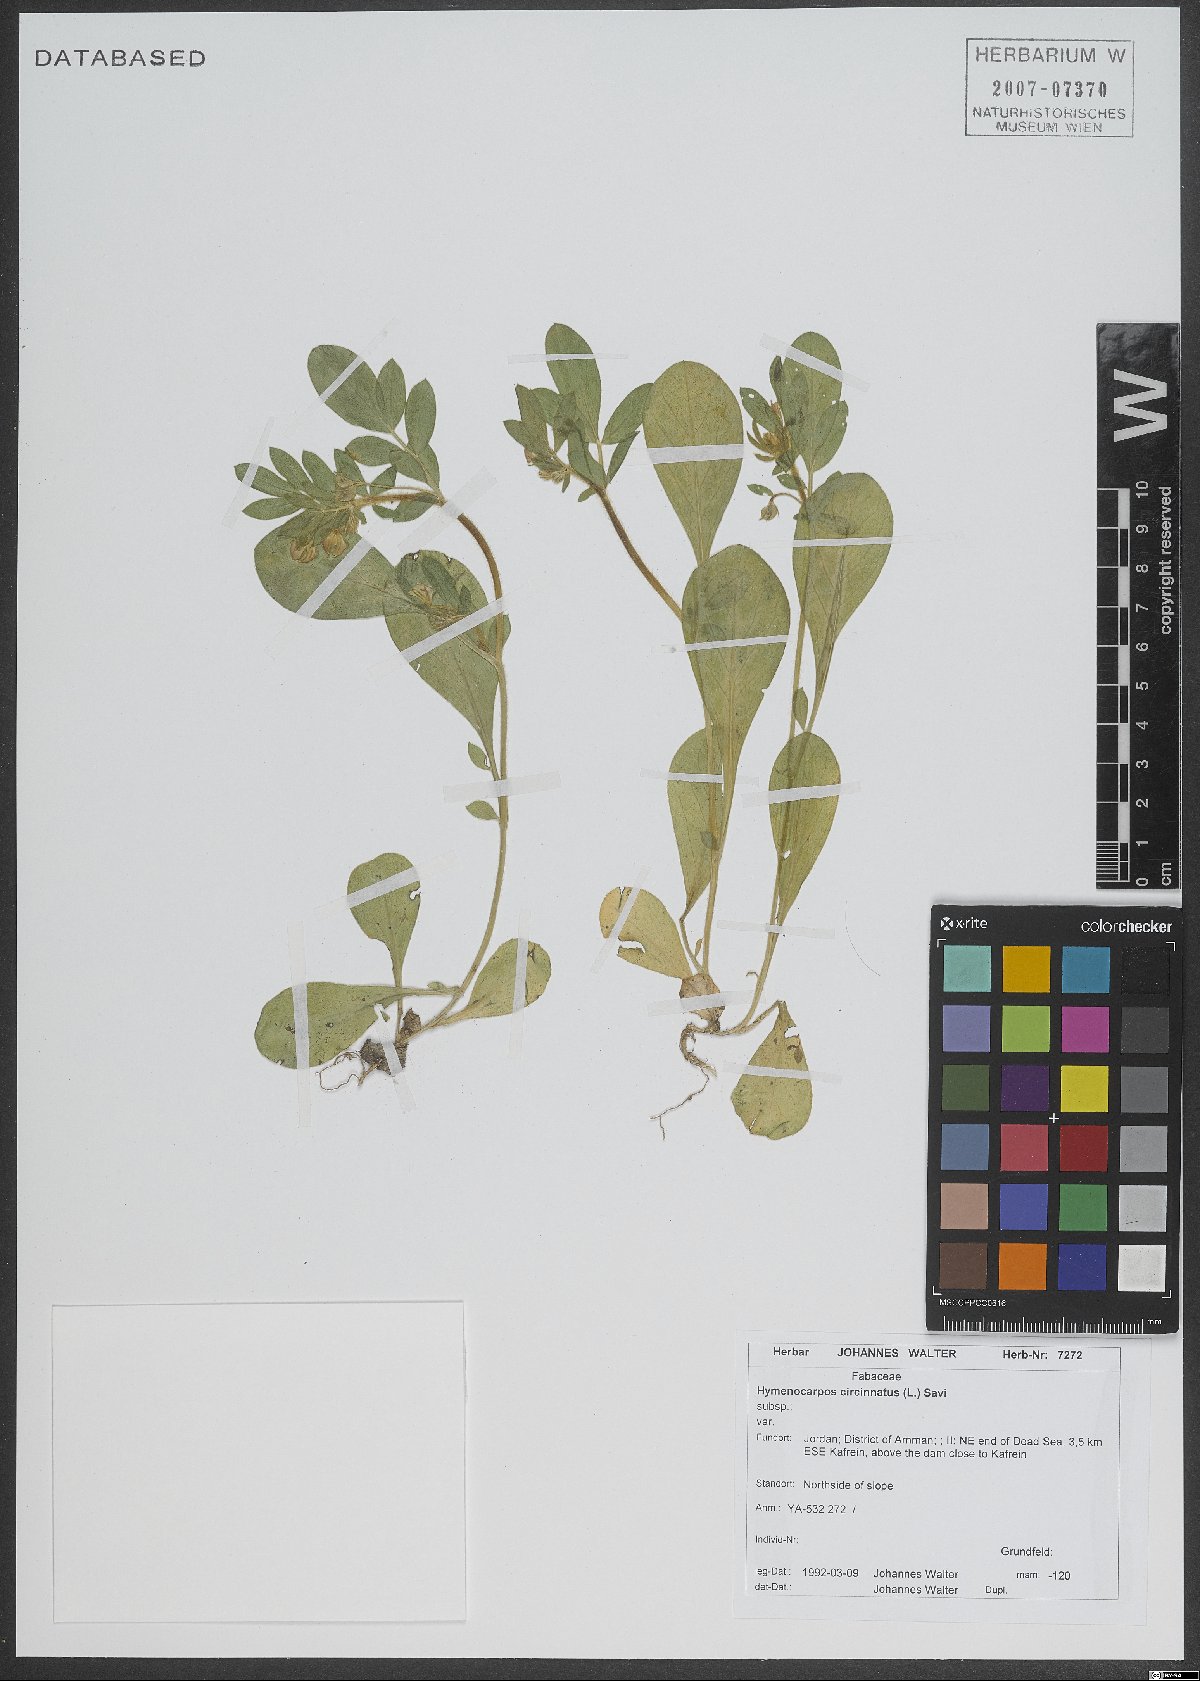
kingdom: Plantae
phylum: Tracheophyta
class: Magnoliopsida
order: Fabales
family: Fabaceae
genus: Anthyllis
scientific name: Anthyllis circinnata
